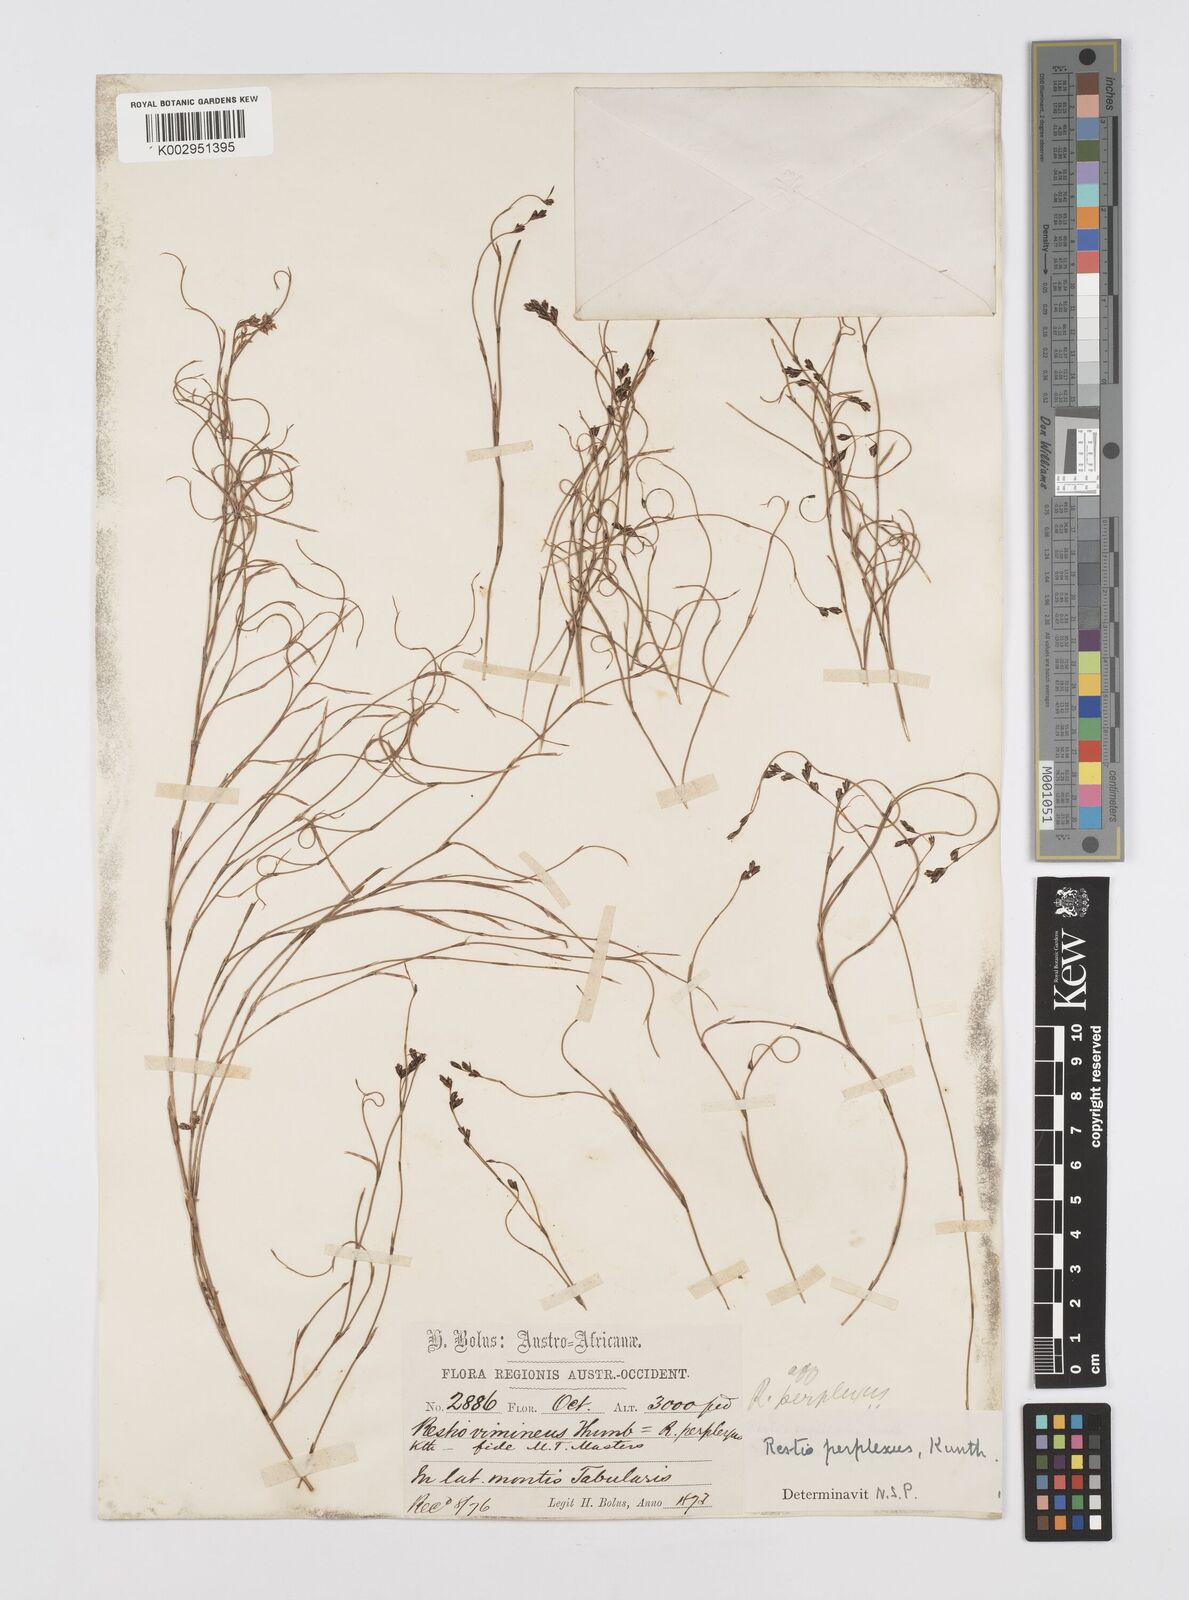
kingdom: Plantae
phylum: Tracheophyta
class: Liliopsida
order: Poales
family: Restionaceae
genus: Restio
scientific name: Restio perplexus
